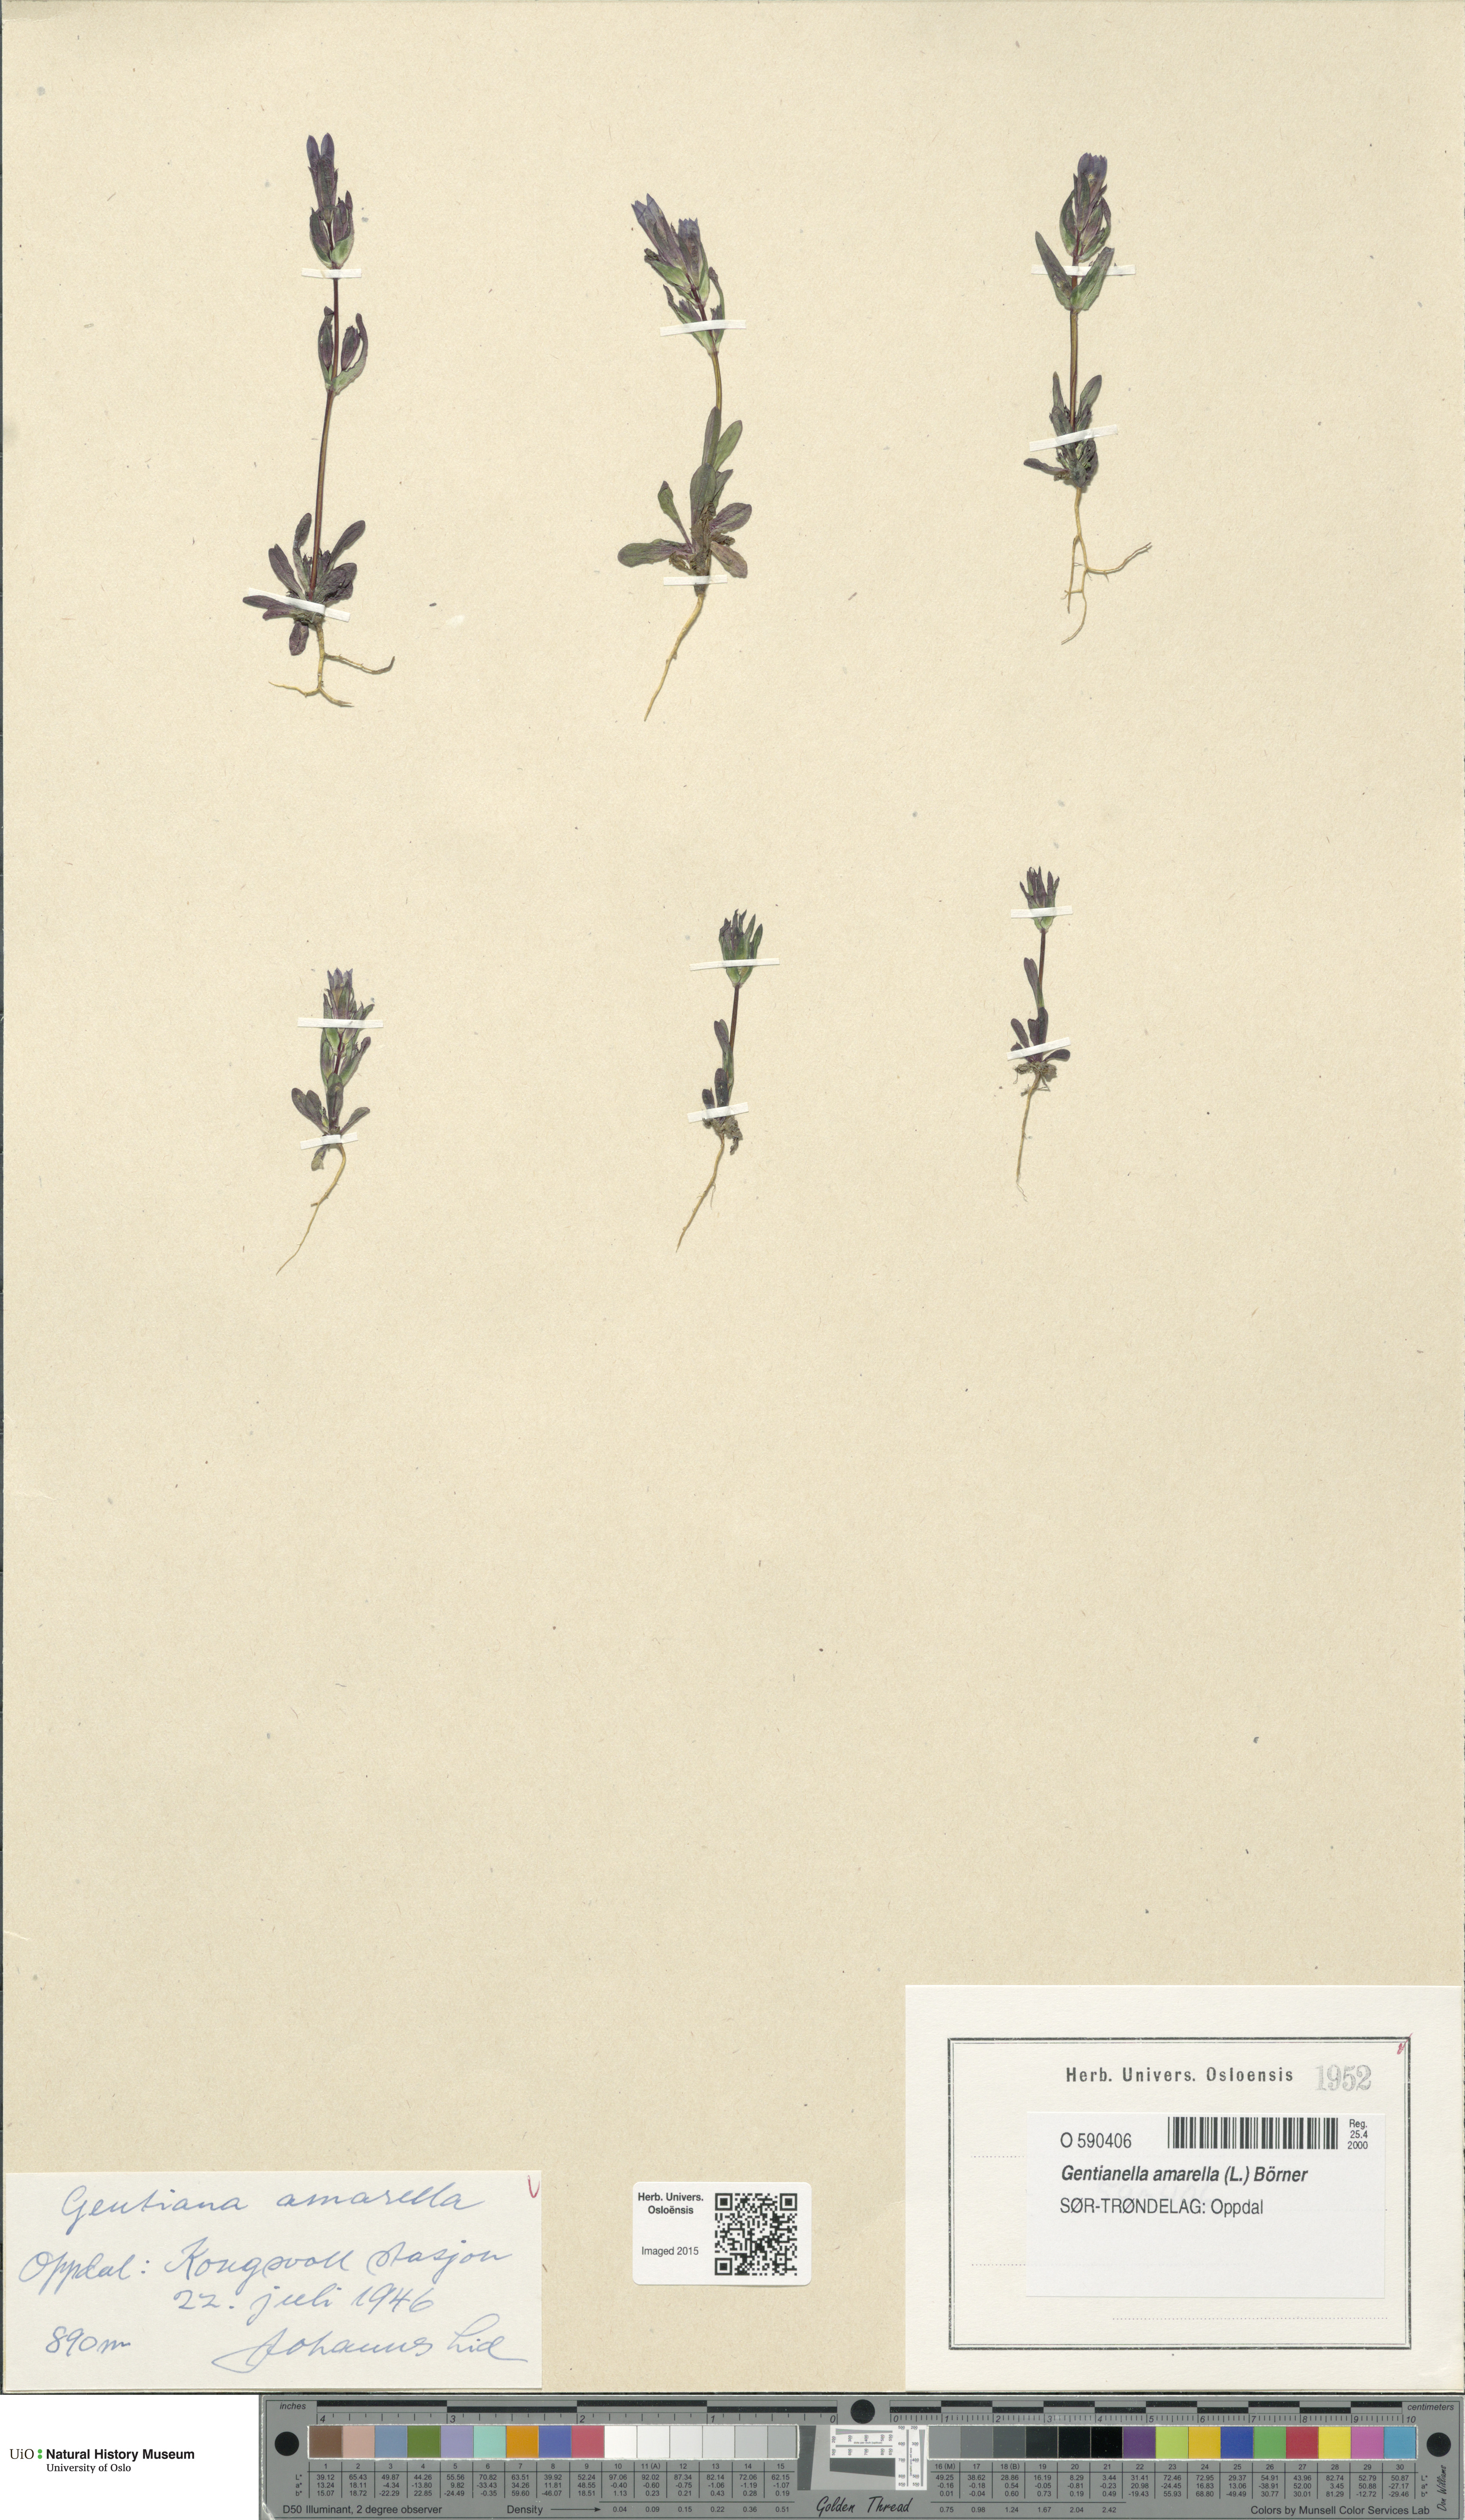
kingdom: Plantae
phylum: Tracheophyta
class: Magnoliopsida
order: Gentianales
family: Gentianaceae
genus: Gentianella
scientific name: Gentianella amarella
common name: Autumn gentian
